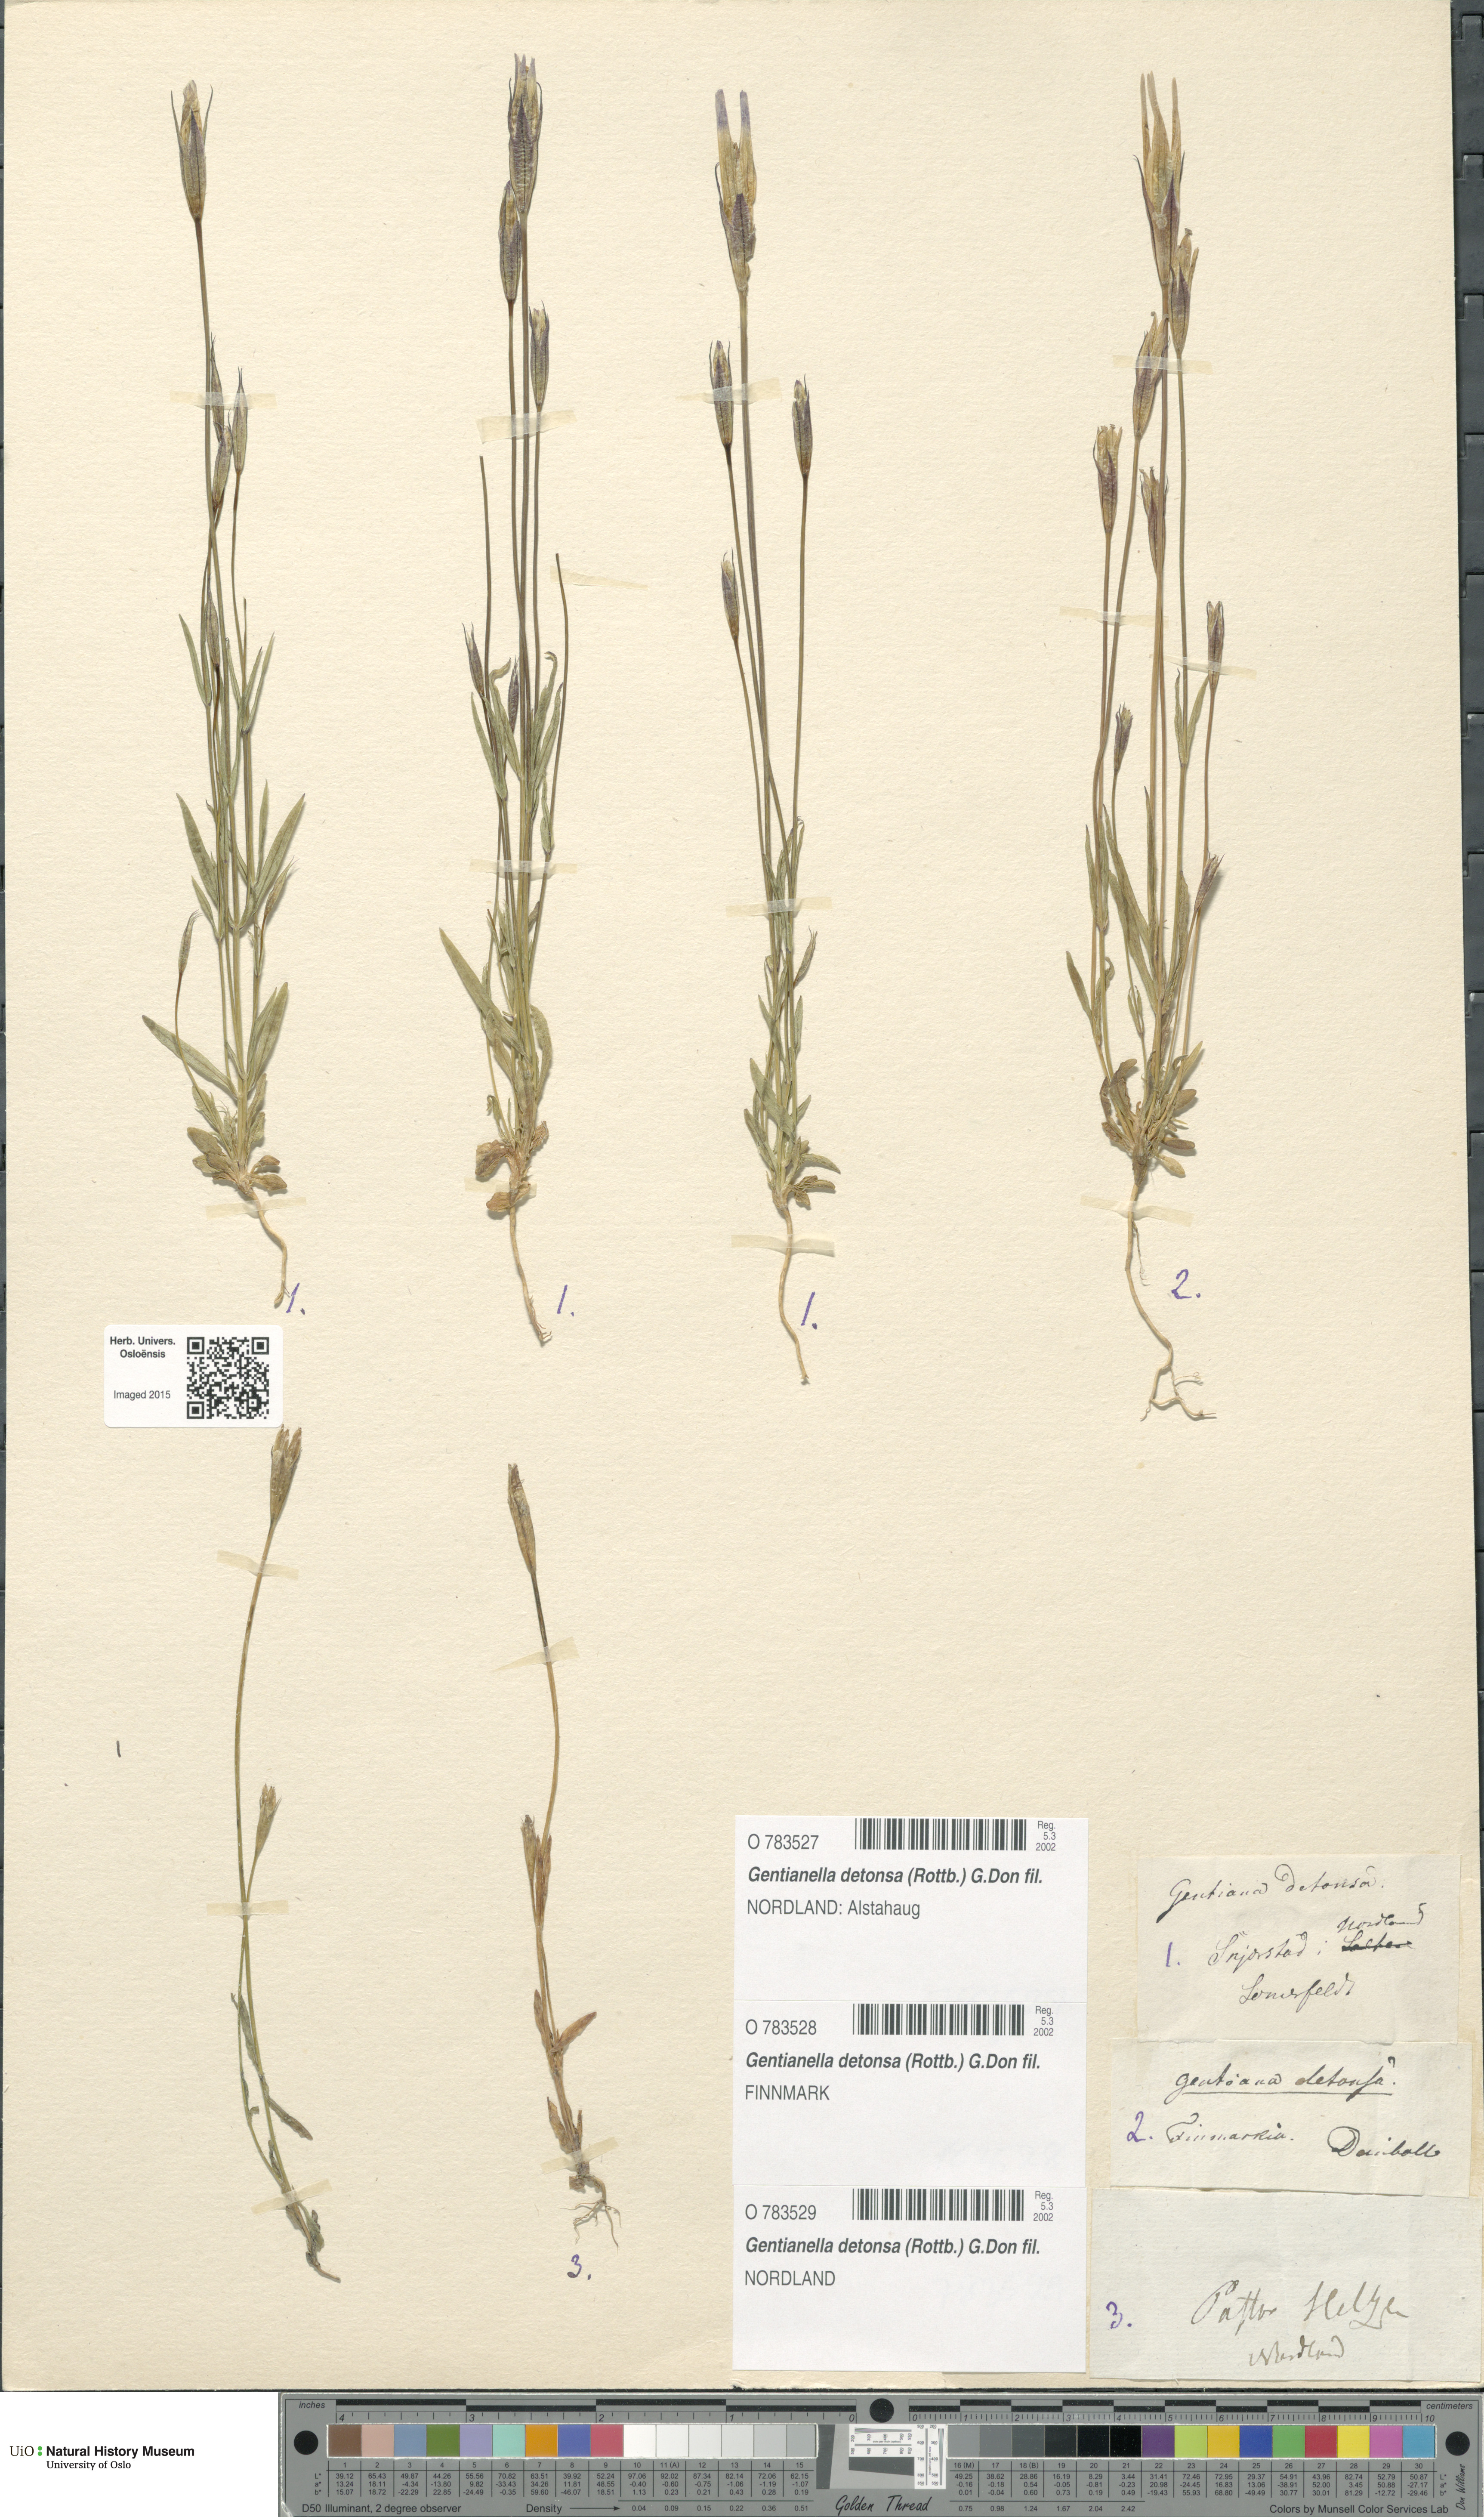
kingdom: Plantae
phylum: Tracheophyta
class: Magnoliopsida
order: Gentianales
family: Gentianaceae
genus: Gentianopsis
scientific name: Gentianopsis detonsa
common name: Fringed-gentian
